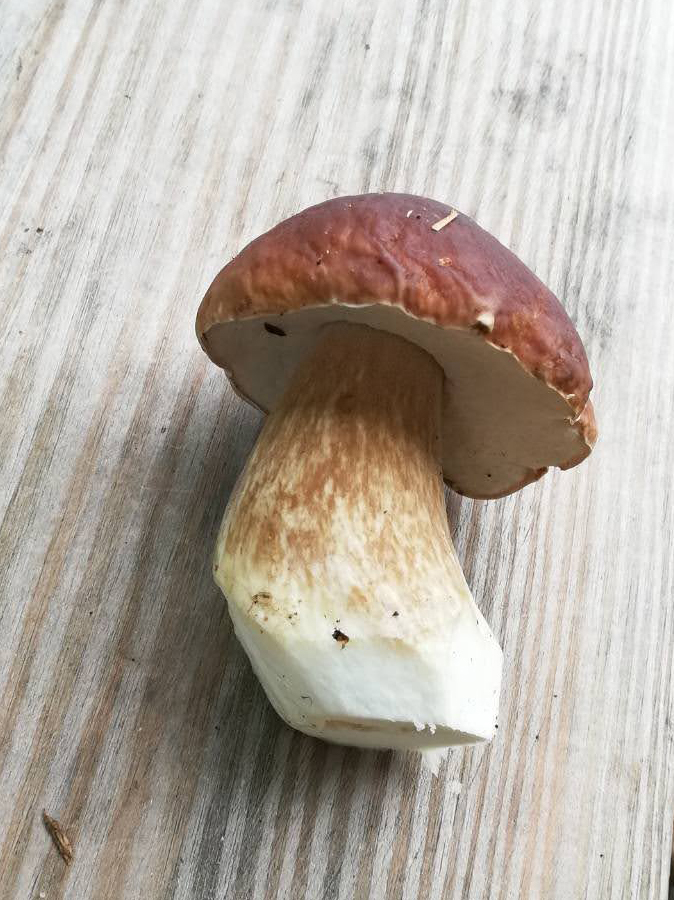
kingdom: Fungi
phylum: Basidiomycota
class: Agaricomycetes
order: Boletales
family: Boletaceae
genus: Boletus
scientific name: Boletus edulis
